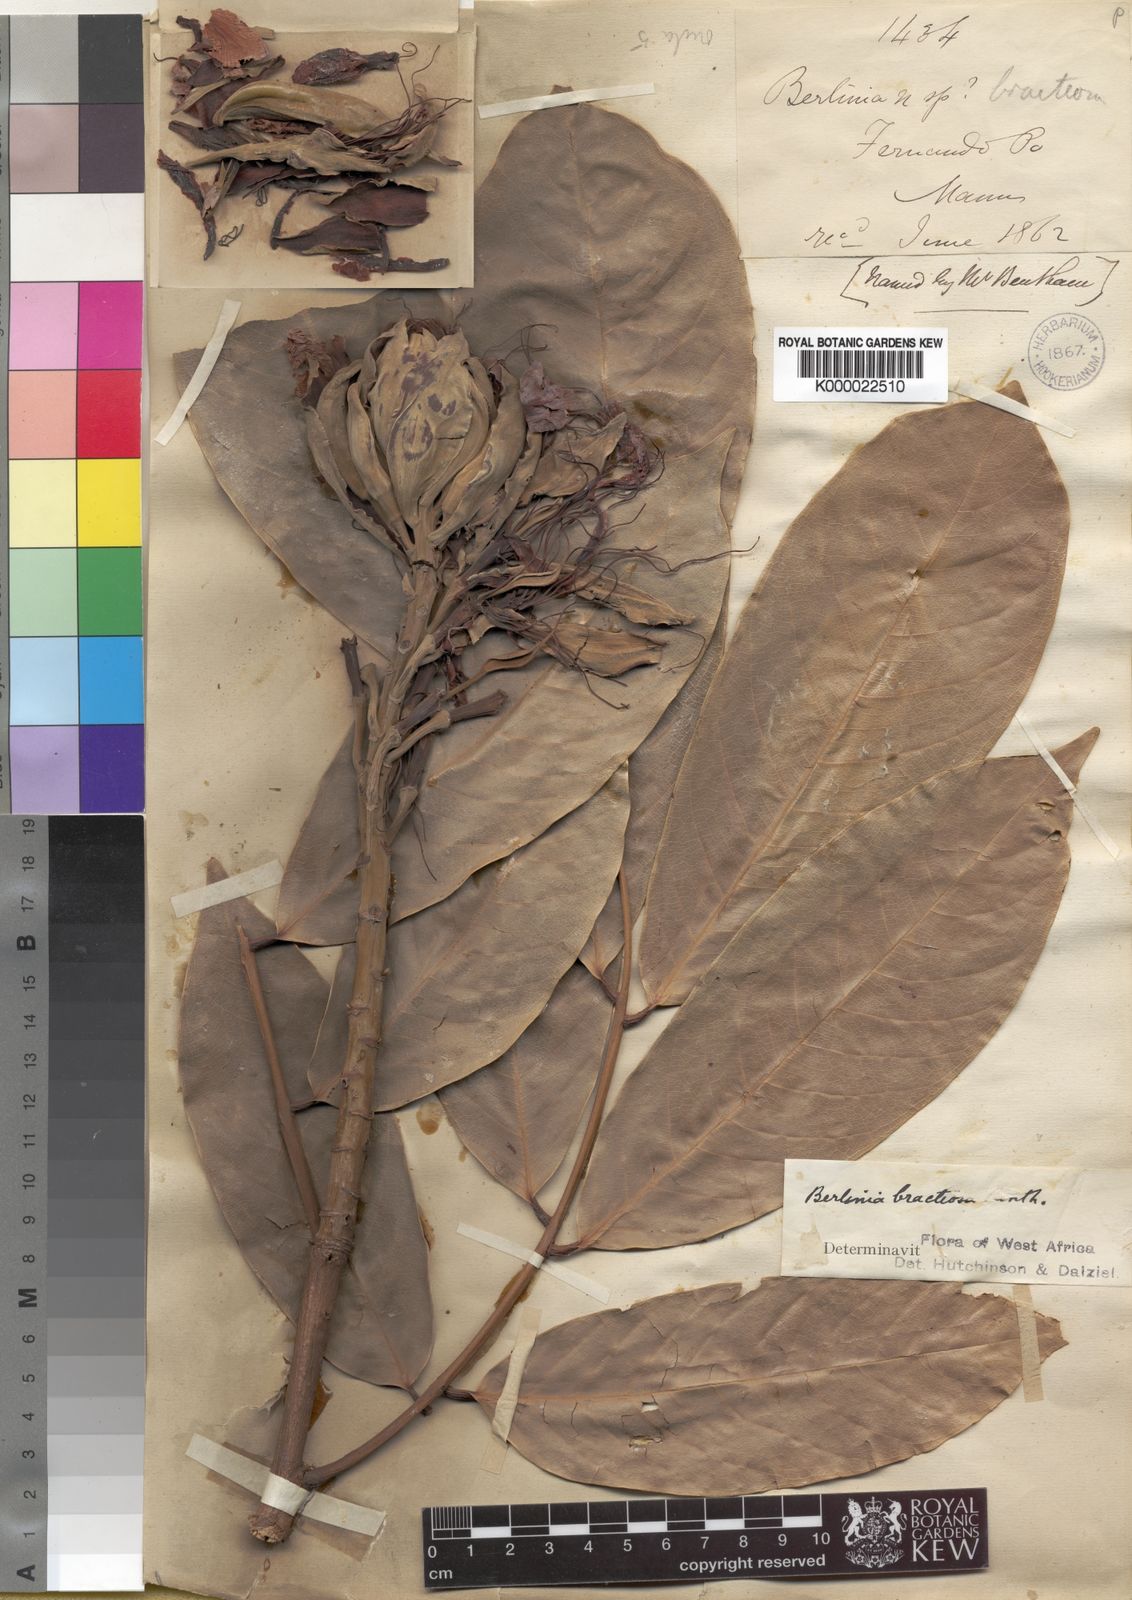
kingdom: Plantae
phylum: Tracheophyta
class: Magnoliopsida
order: Fabales
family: Fabaceae
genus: Berlinia
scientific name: Berlinia bracteosa
